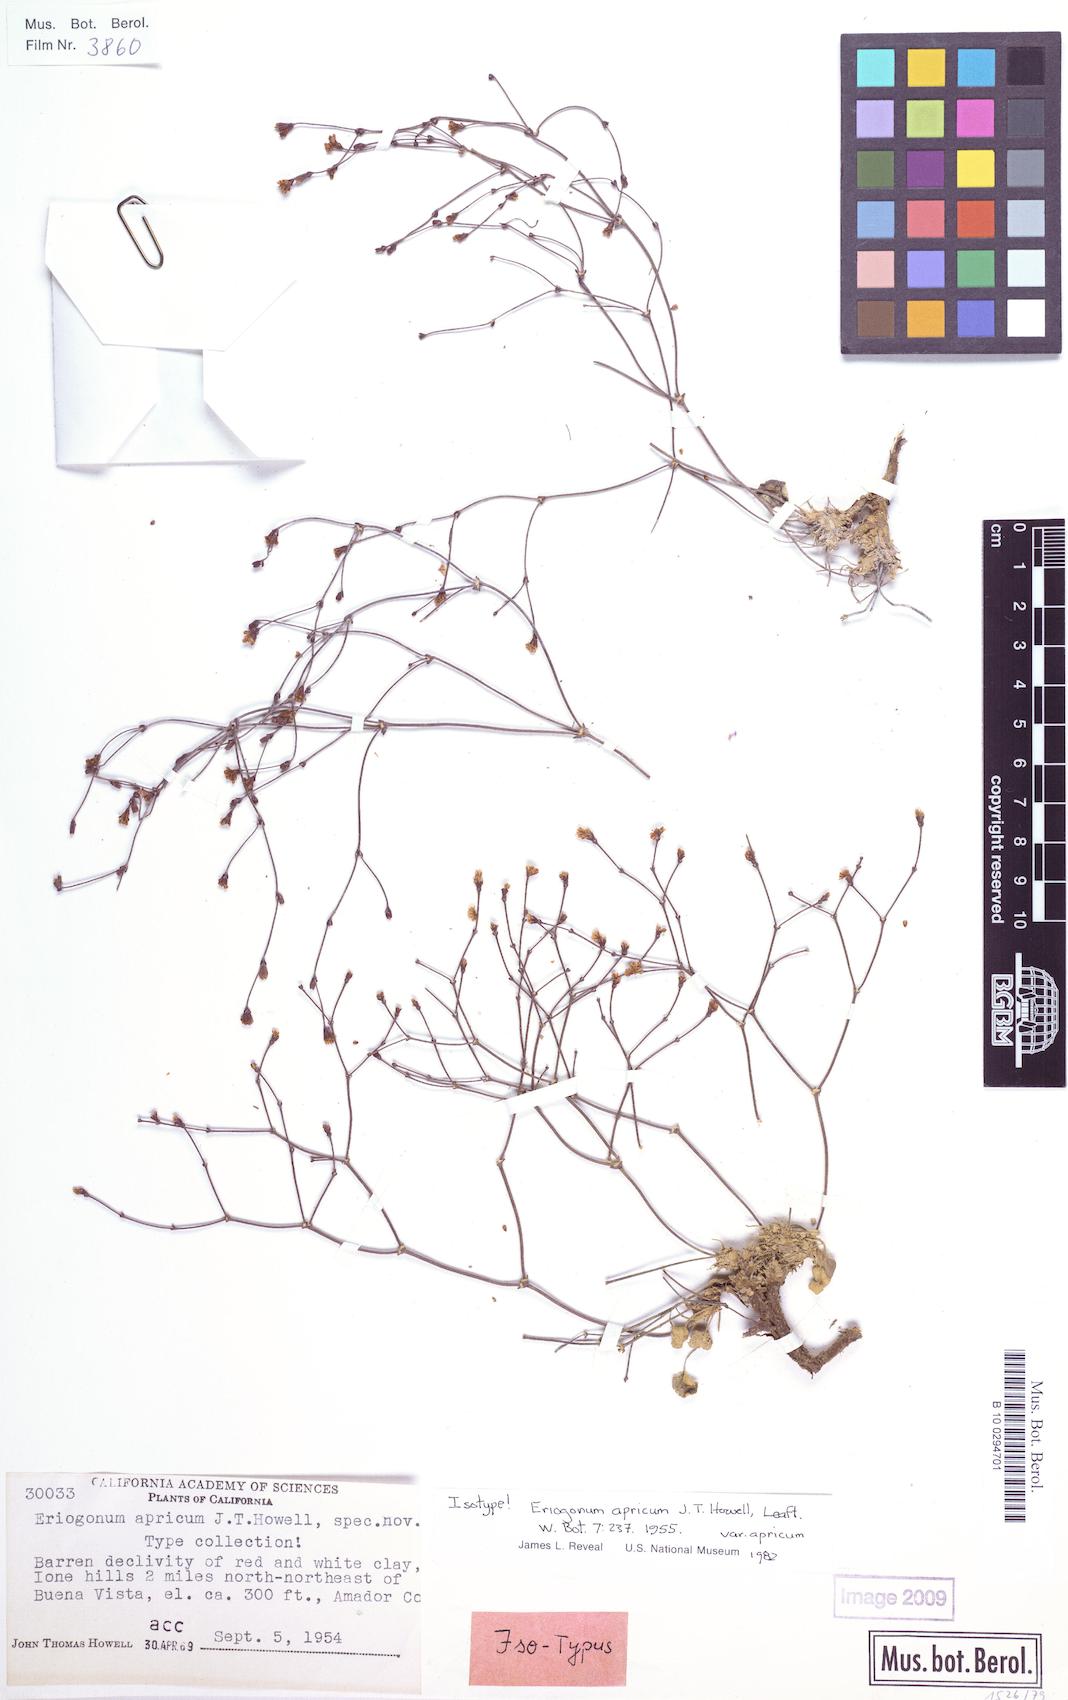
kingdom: Plantae
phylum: Tracheophyta
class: Magnoliopsida
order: Caryophyllales
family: Polygonaceae
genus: Eriogonum
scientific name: Eriogonum apricum
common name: Ione wild buckwheat
